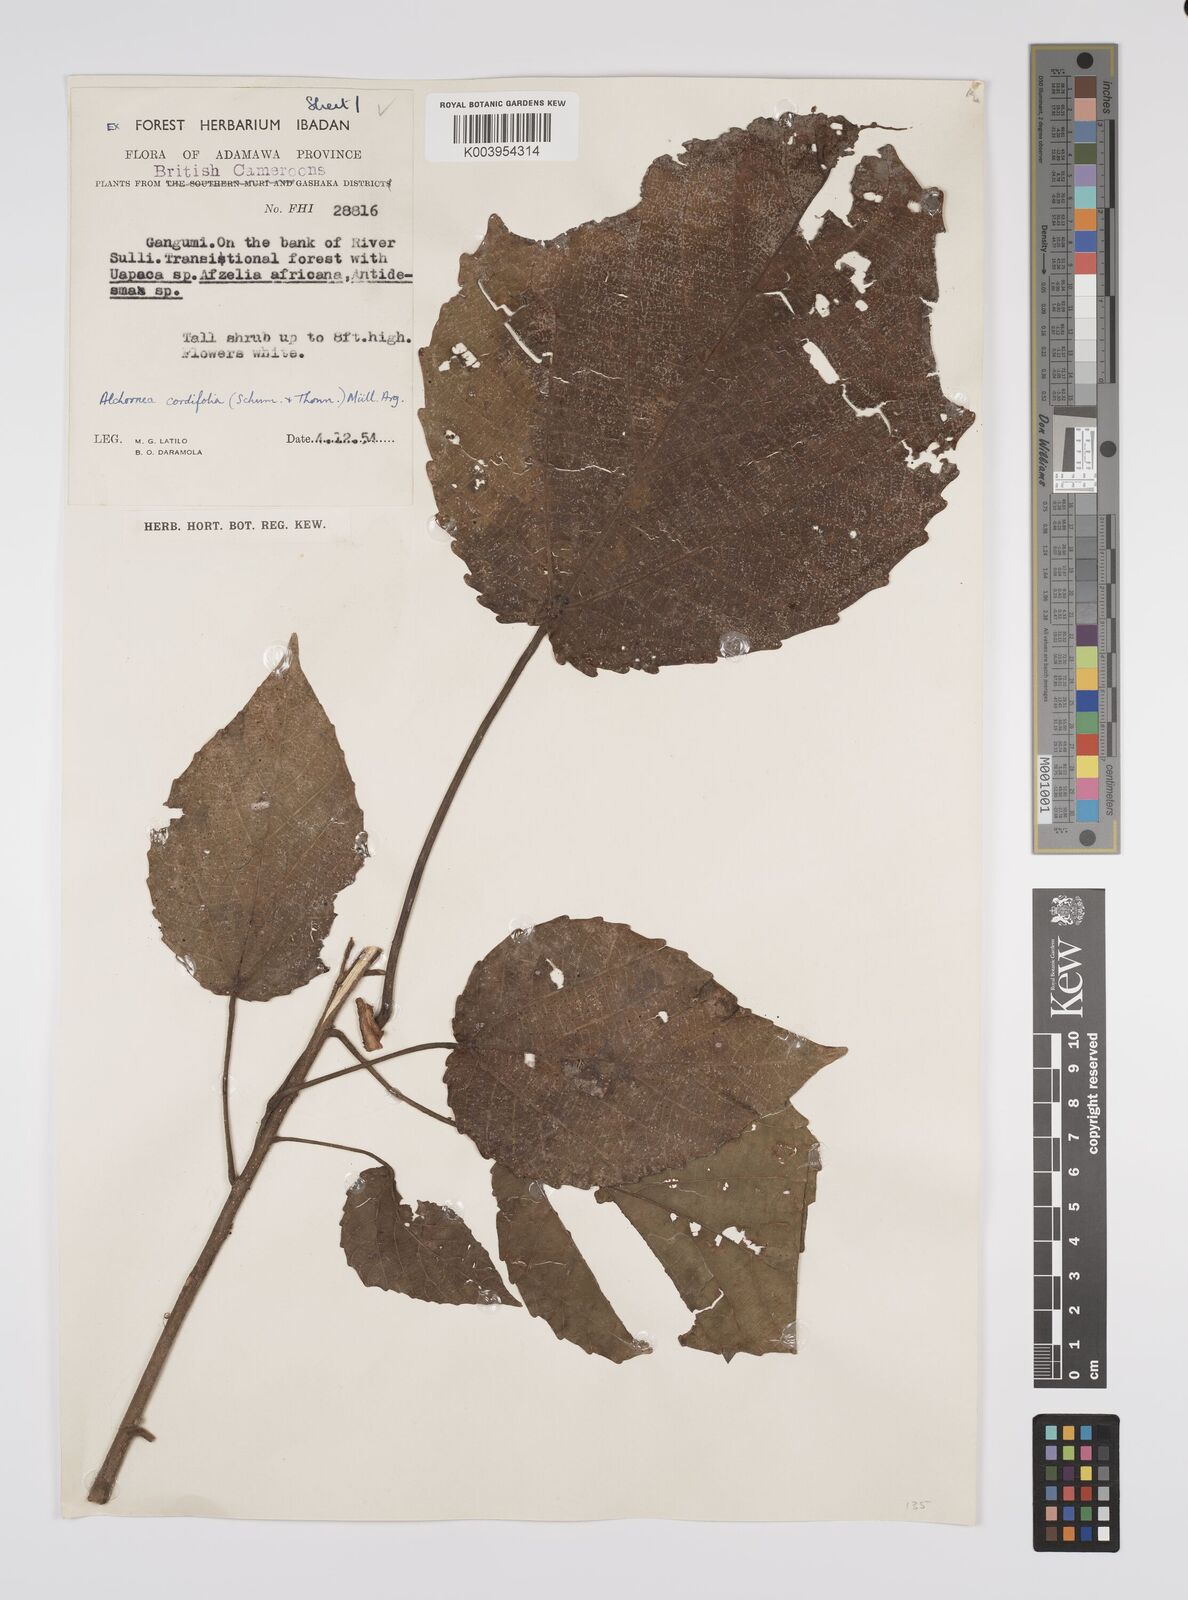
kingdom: Plantae
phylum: Tracheophyta
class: Magnoliopsida
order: Malpighiales
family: Euphorbiaceae
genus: Alchornea
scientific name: Alchornea cordifolia
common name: Christmasbush
